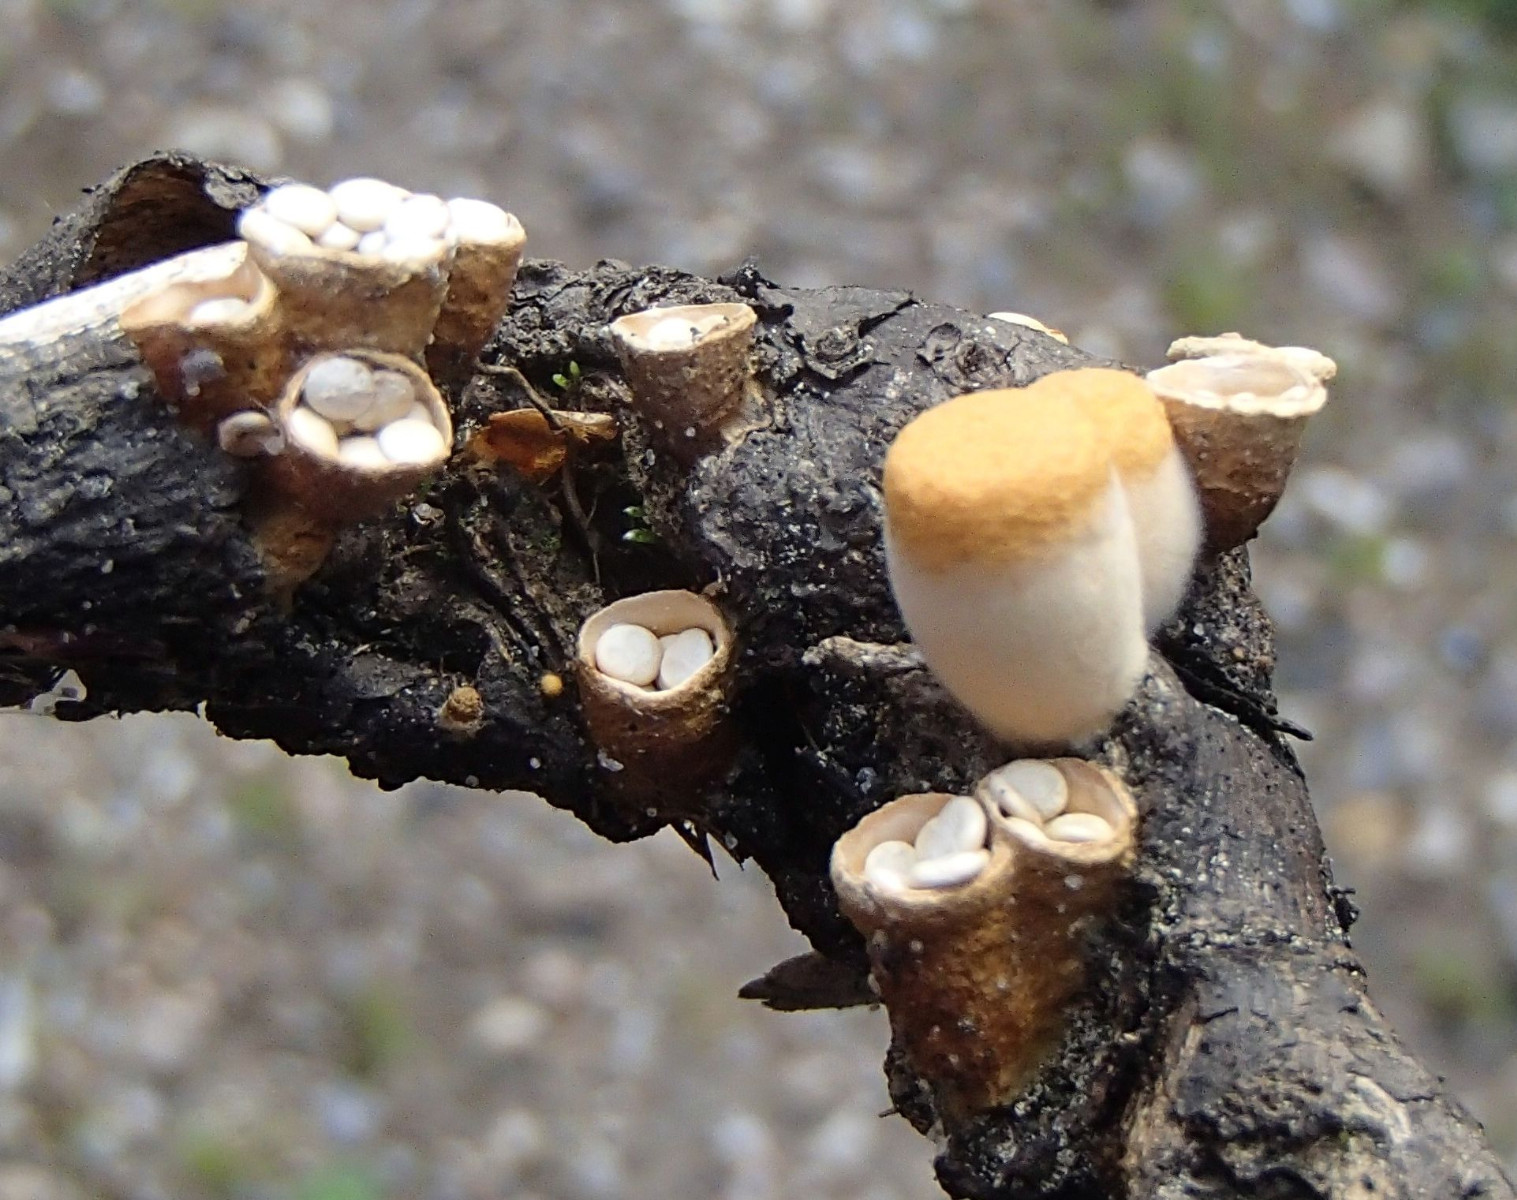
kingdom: Fungi
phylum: Basidiomycota
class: Agaricomycetes
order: Agaricales
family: Nidulariaceae
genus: Crucibulum
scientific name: Crucibulum crucibuliforme
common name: krukkesvamp
